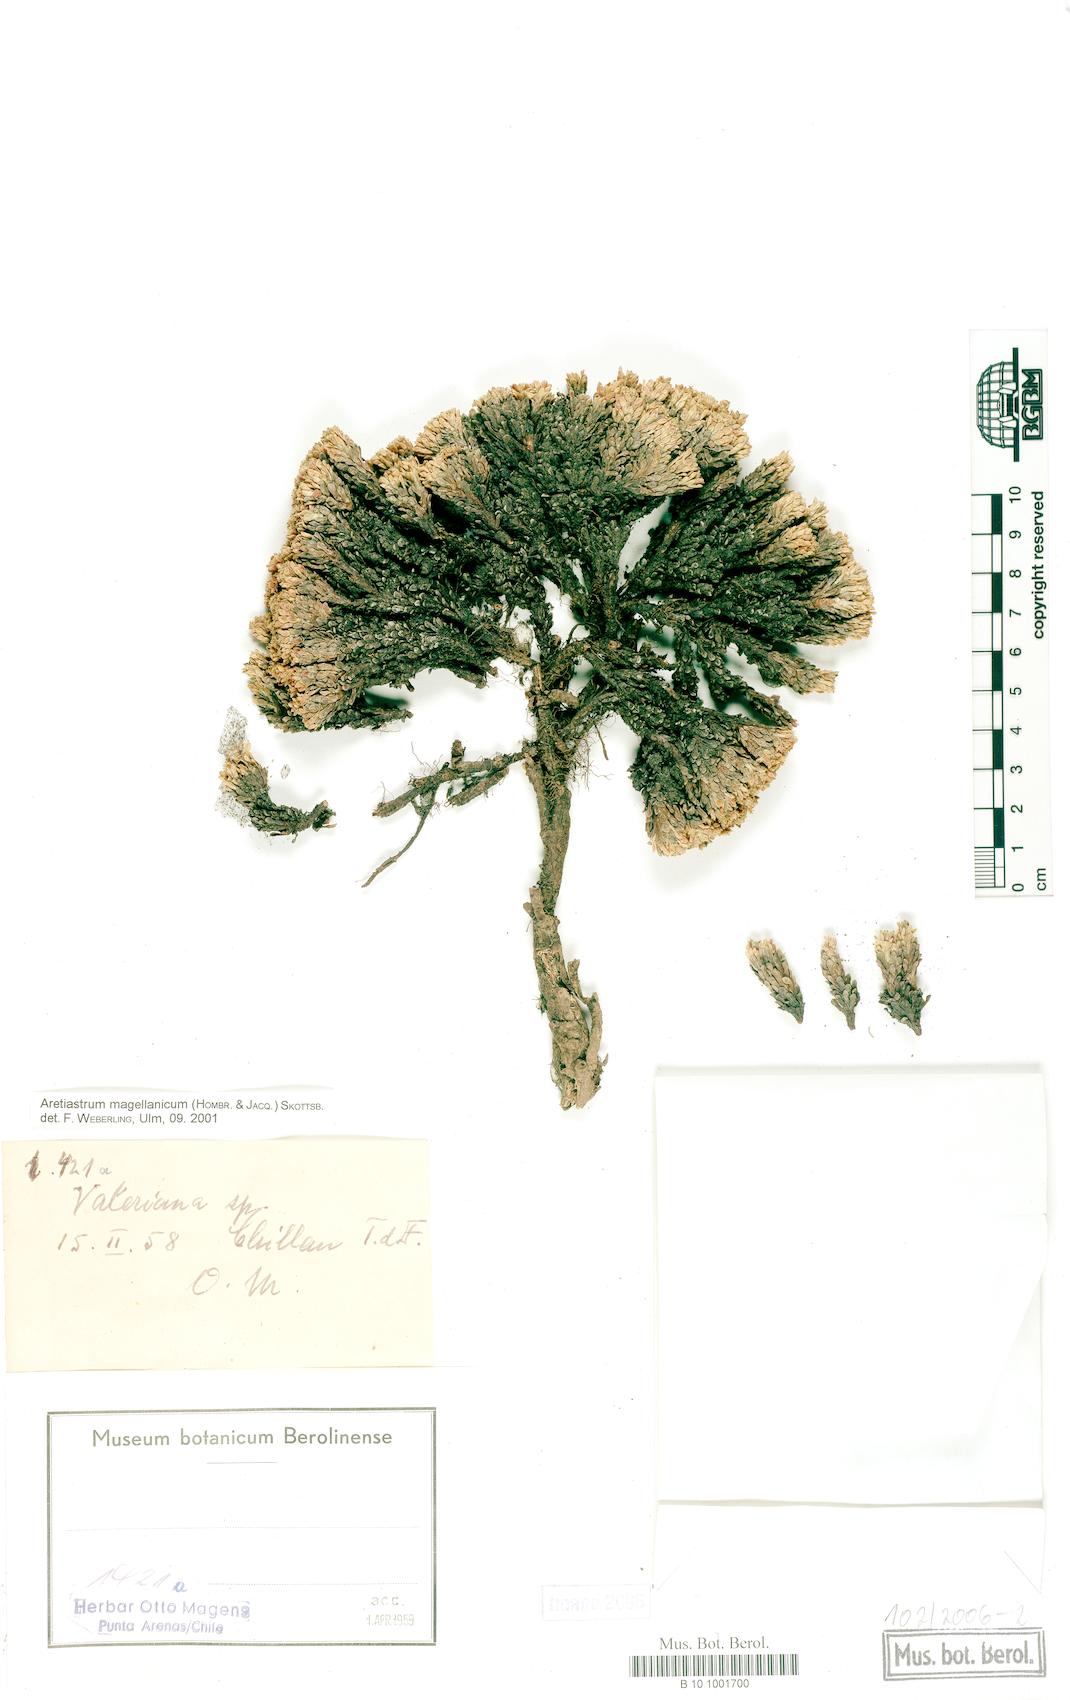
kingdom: Plantae
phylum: Tracheophyta
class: Magnoliopsida
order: Dipsacales
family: Caprifoliaceae
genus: Valeriana
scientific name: Valeriana sedifolia
